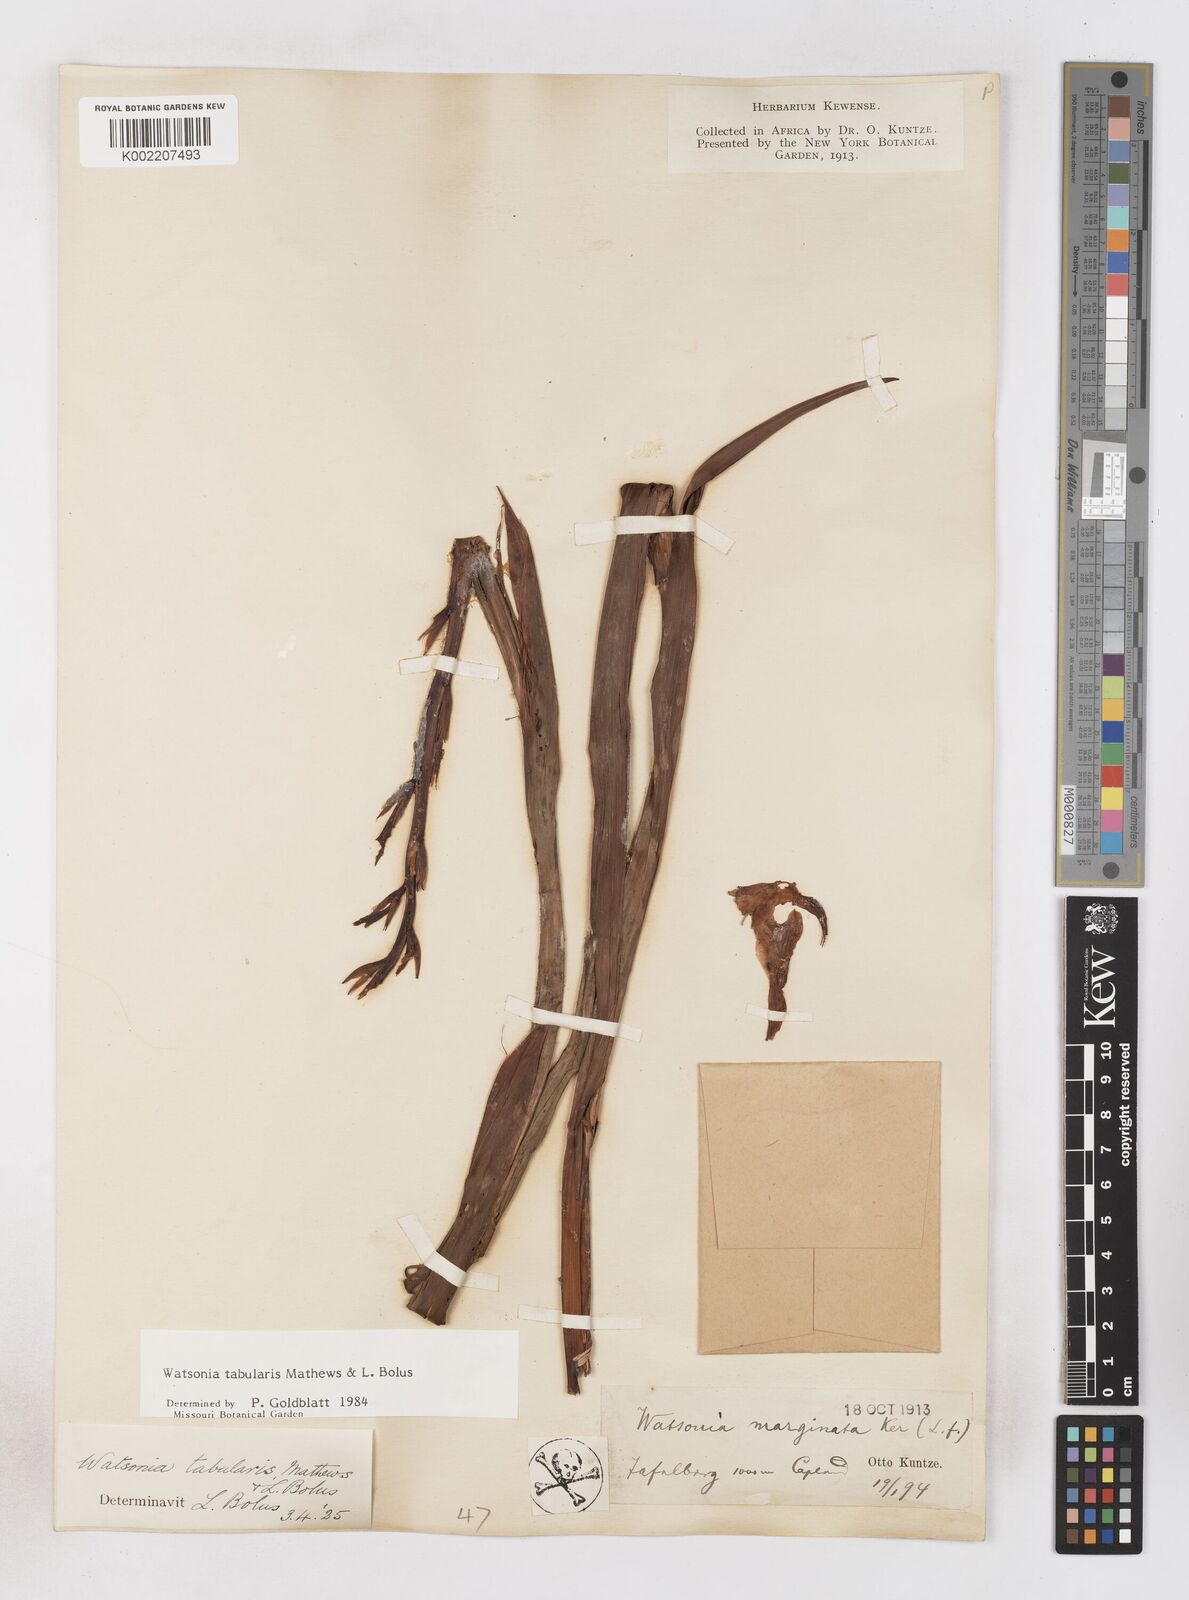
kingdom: Plantae
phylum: Tracheophyta
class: Liliopsida
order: Asparagales
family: Iridaceae
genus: Watsonia
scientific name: Watsonia tabularis
